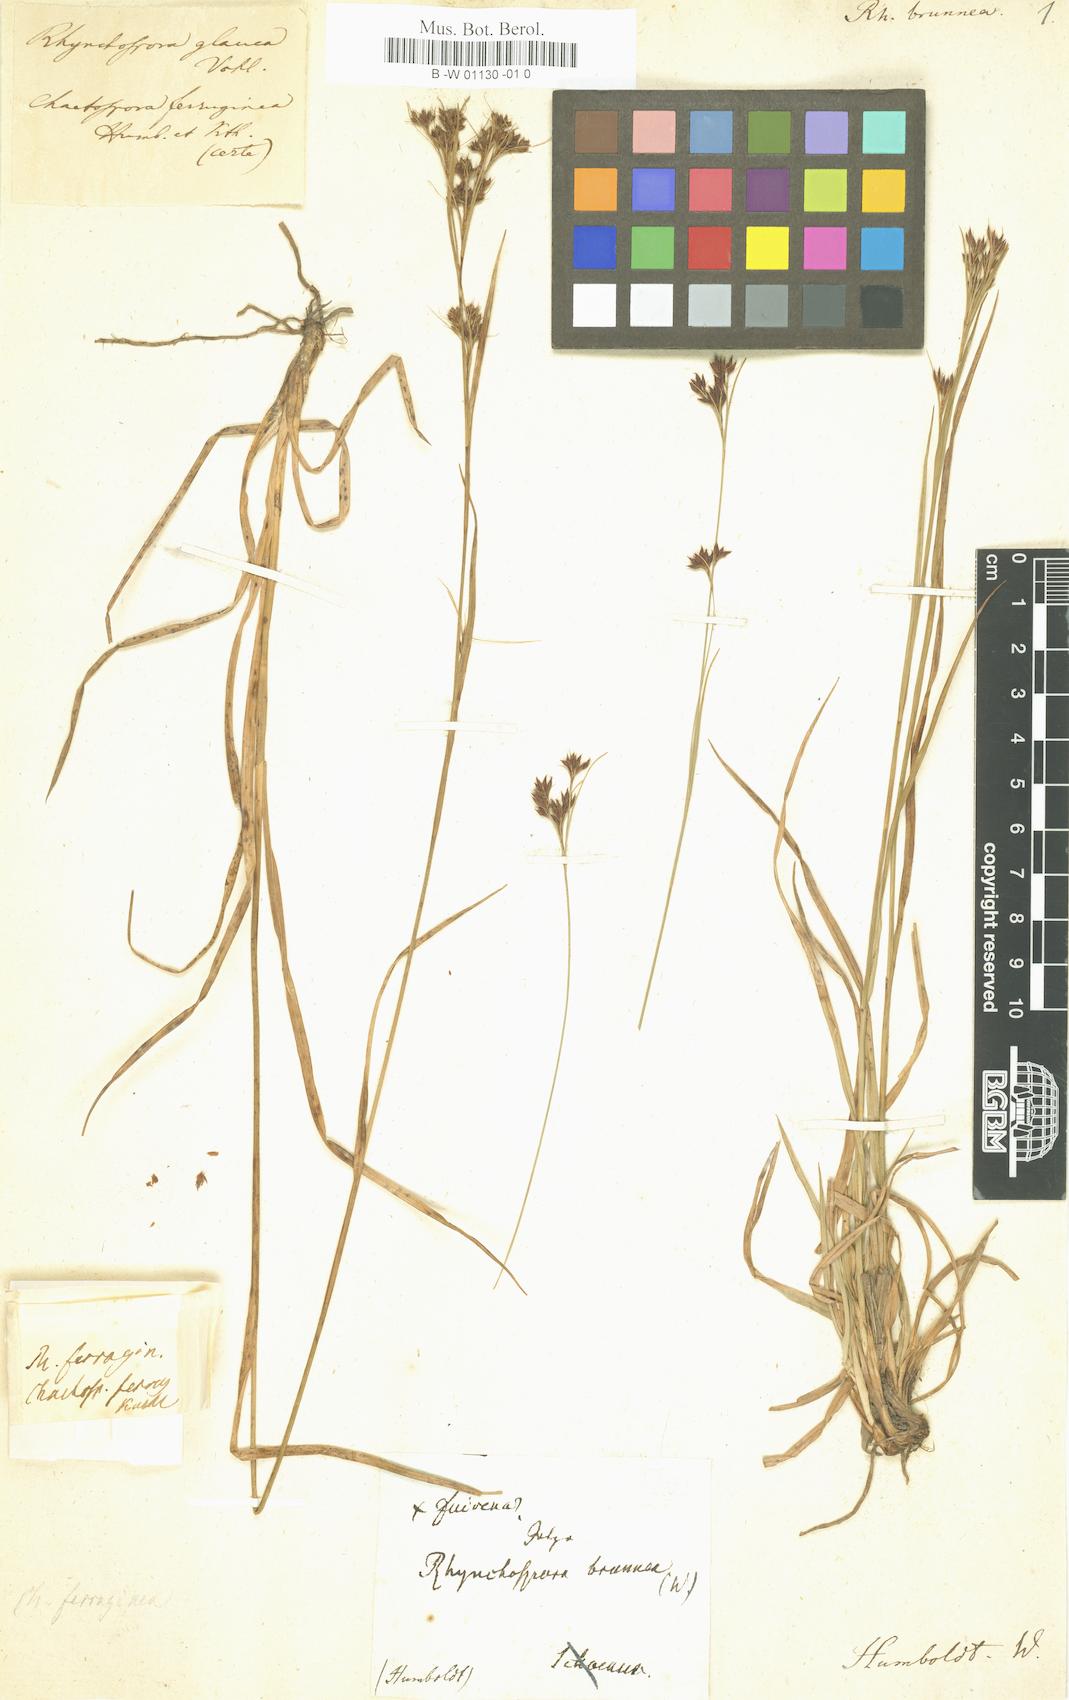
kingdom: Plantae
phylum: Tracheophyta
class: Liliopsida
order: Poales
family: Cyperaceae
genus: Rhynchospora
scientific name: Rhynchospora brownii
